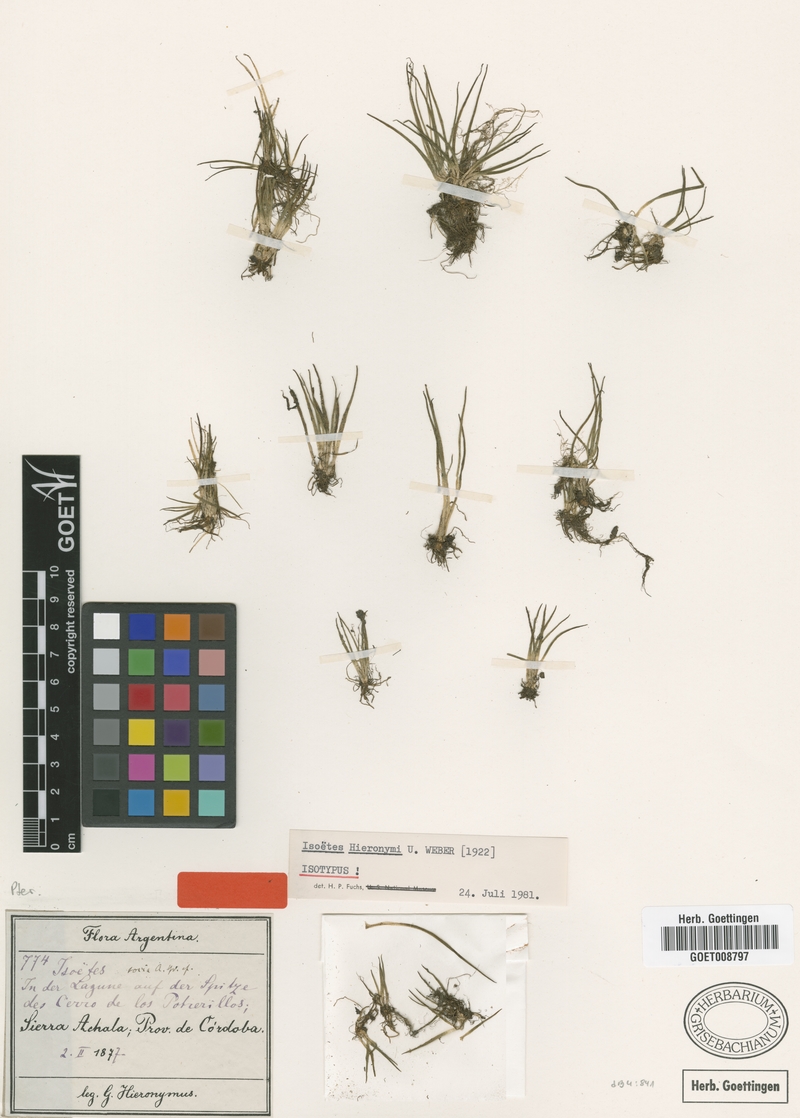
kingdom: Plantae
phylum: Tracheophyta
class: Lycopodiopsida
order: Isoetales
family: Isoetaceae
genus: Isoetes
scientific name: Isoetes hieronymi
